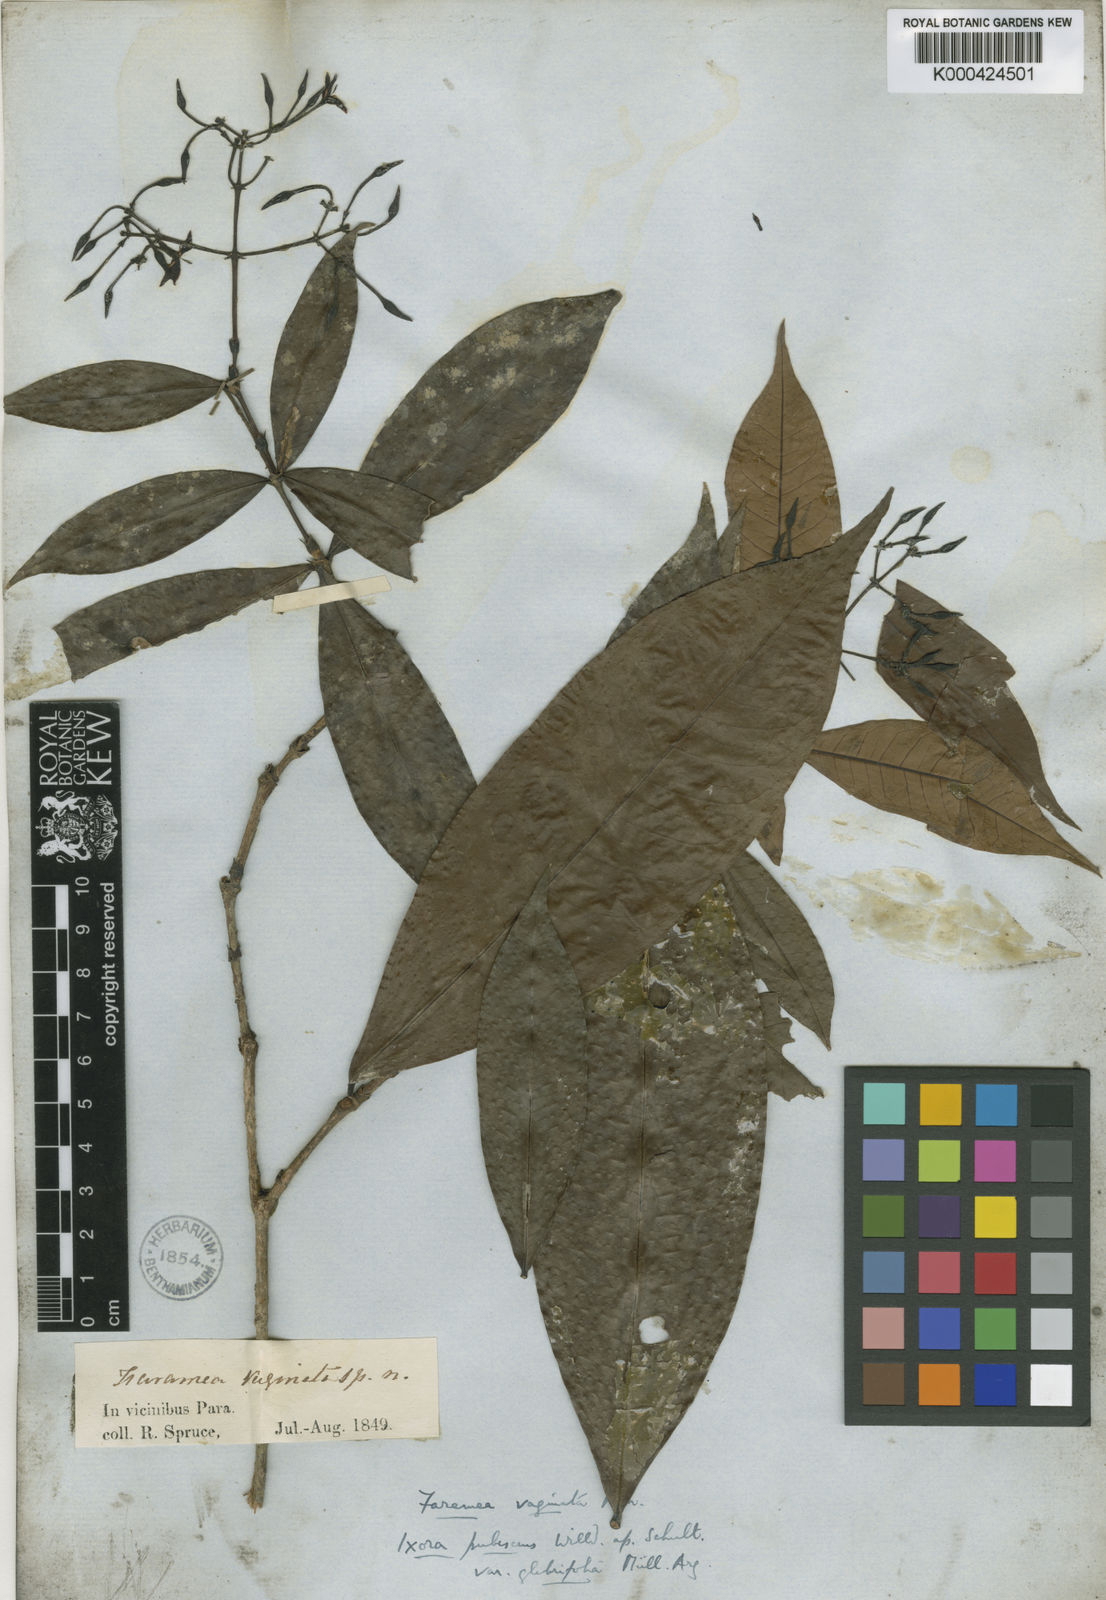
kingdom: Plantae
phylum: Tracheophyta
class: Magnoliopsida
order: Gentianales
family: Rubiaceae
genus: Ixora
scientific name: Ixora
